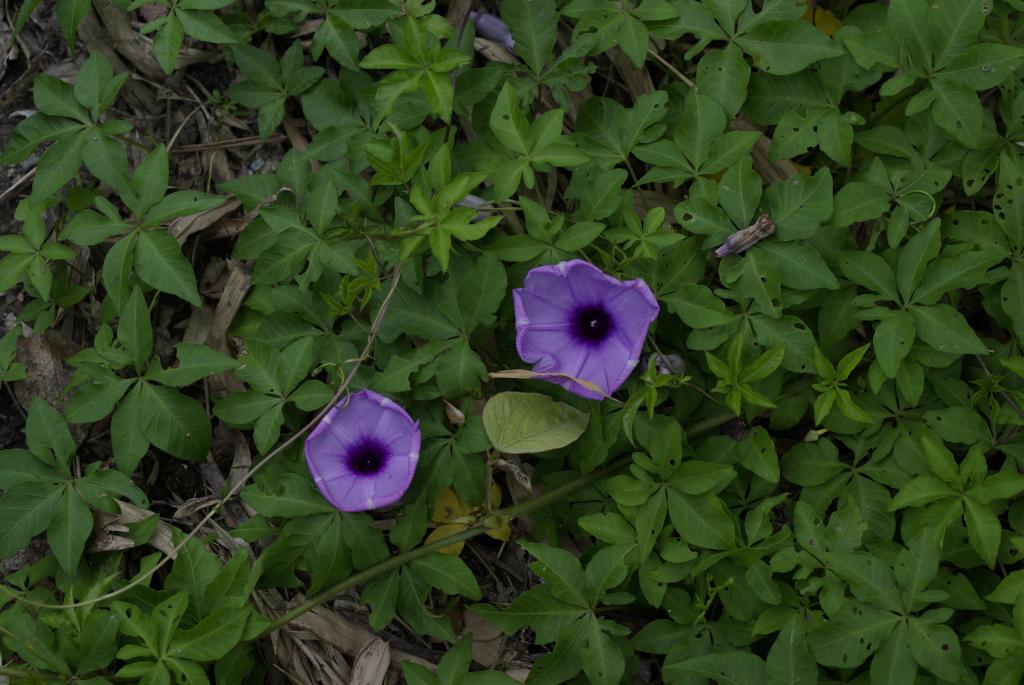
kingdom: Plantae
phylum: Tracheophyta
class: Magnoliopsida
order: Solanales
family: Convolvulaceae
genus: Ipomoea
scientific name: Ipomoea cairica
